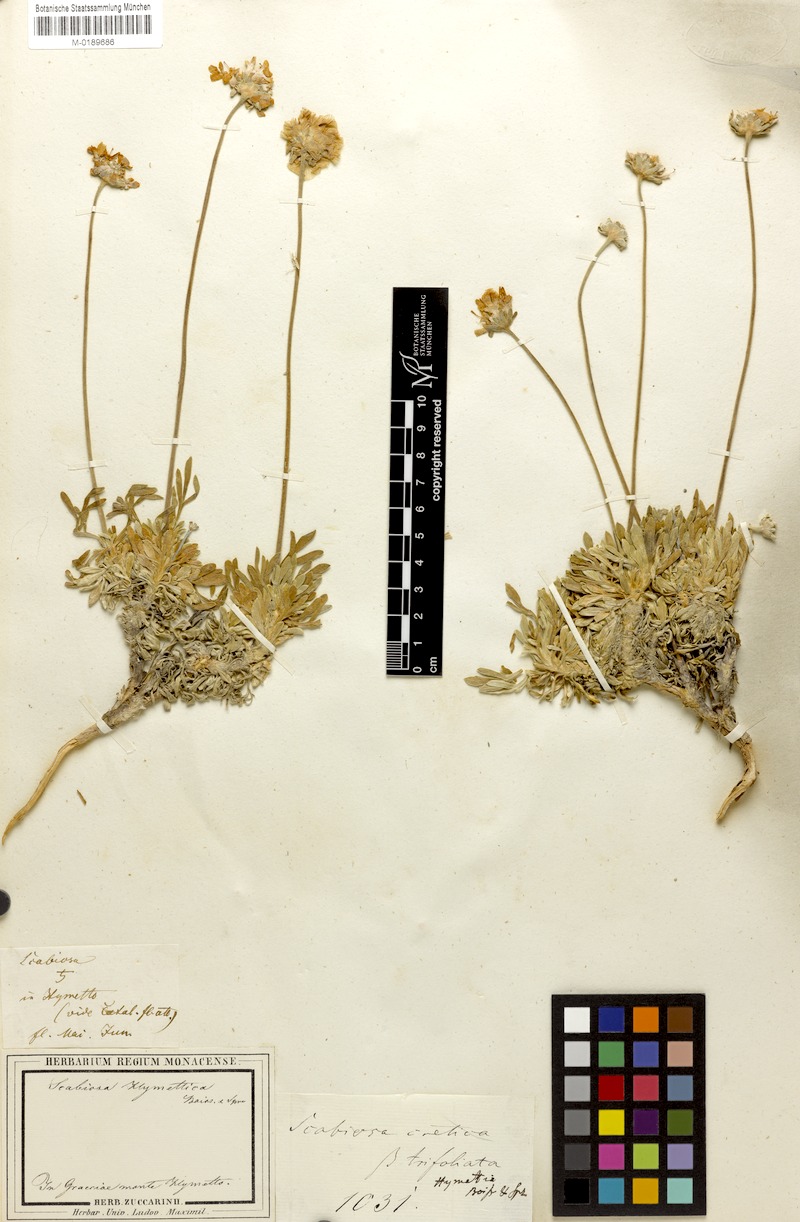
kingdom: Plantae
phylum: Tracheophyta
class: Magnoliopsida
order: Dipsacales
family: Caprifoliaceae
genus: Lomelosia
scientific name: Lomelosia hymettia
